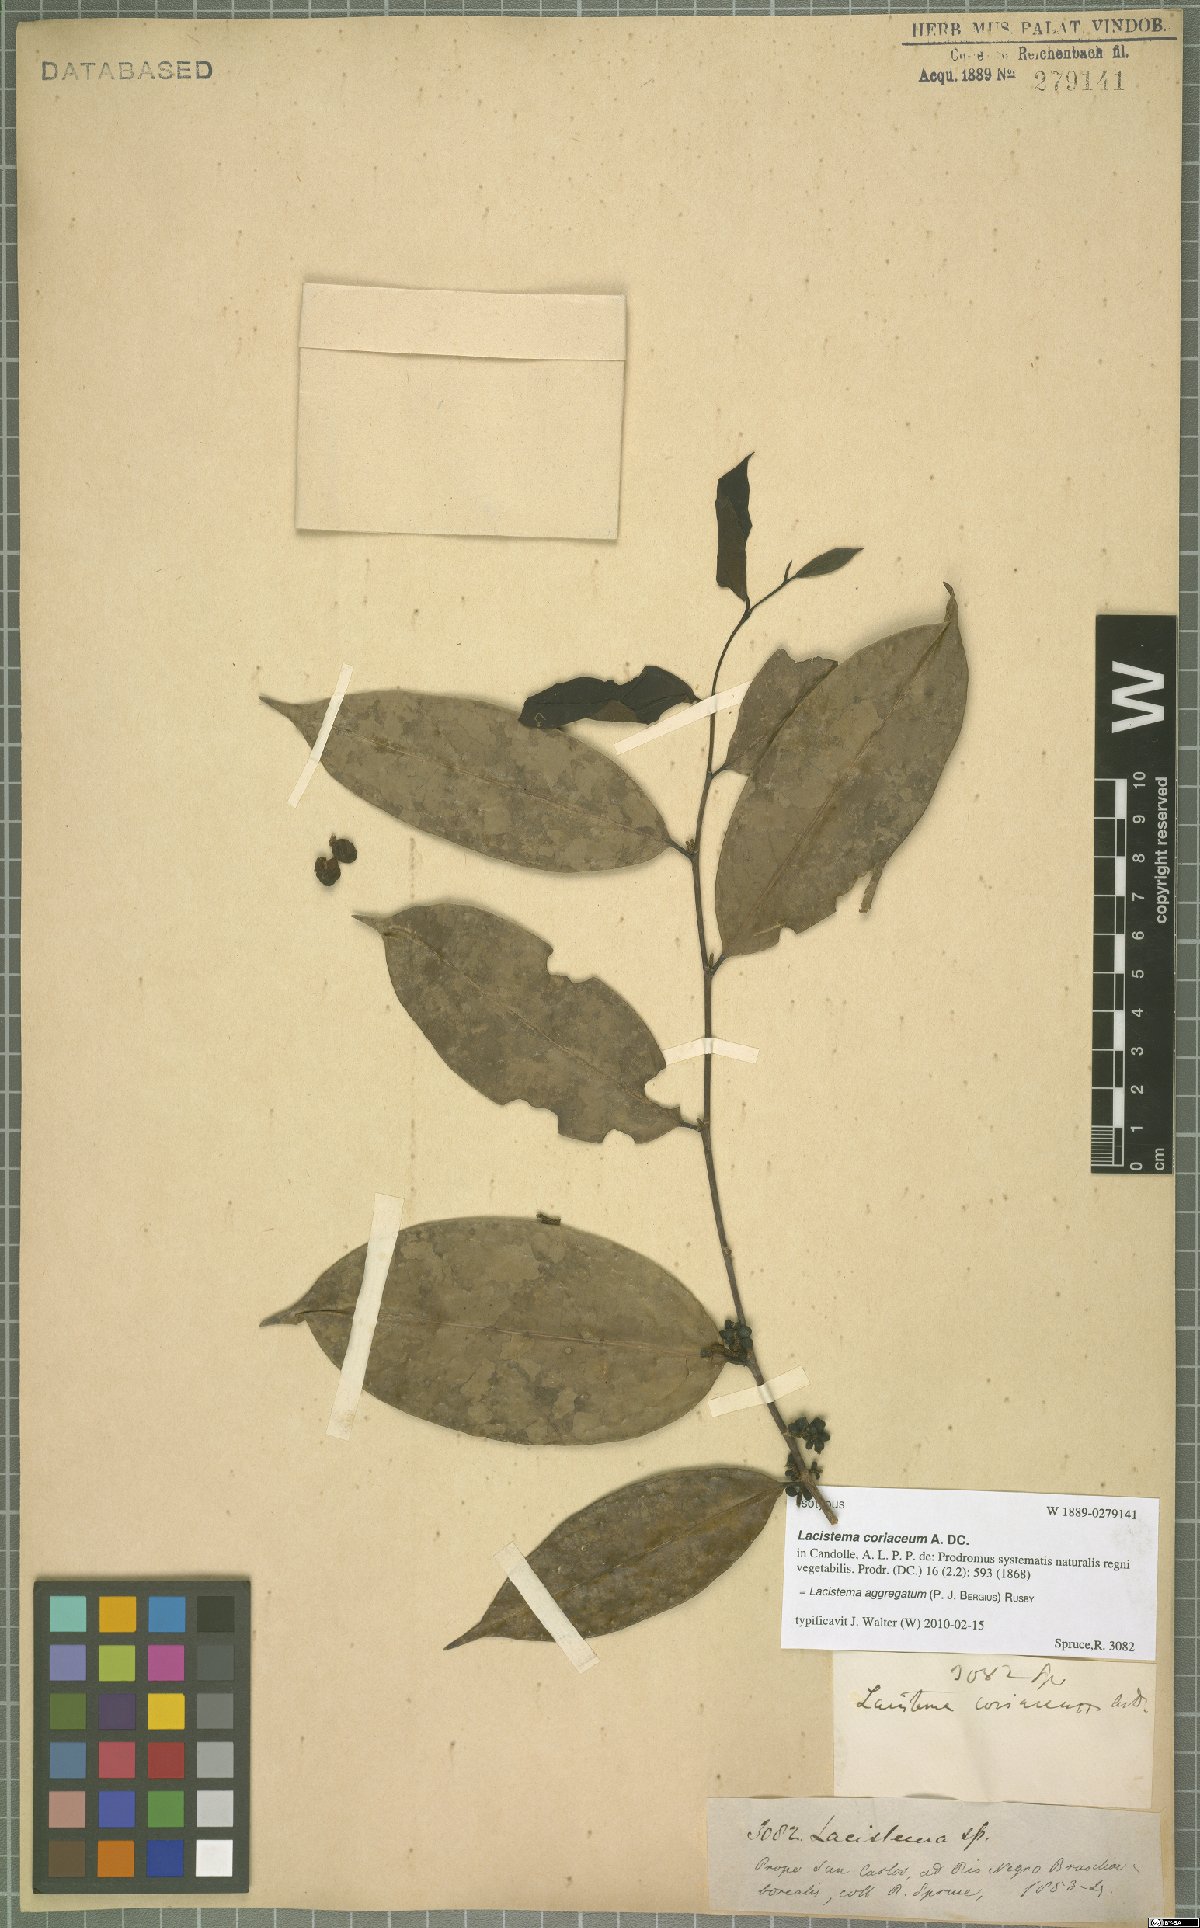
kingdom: Plantae
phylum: Tracheophyta
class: Magnoliopsida
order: Malpighiales
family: Lacistemataceae
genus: Lacistema
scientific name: Lacistema aggregatum
